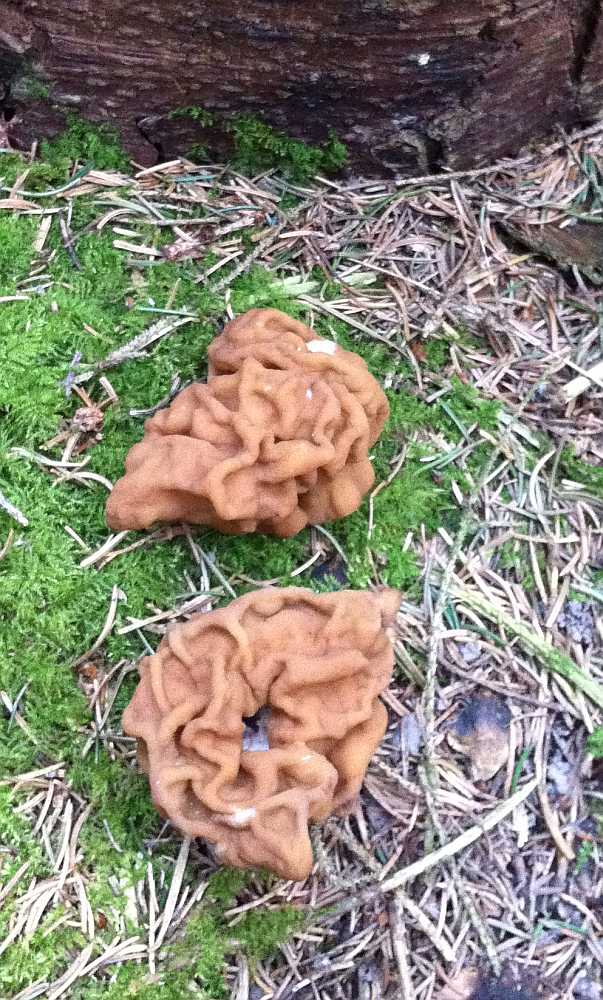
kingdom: Fungi
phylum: Ascomycota
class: Pezizomycetes
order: Pezizales
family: Discinaceae
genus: Gyromitra
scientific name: Gyromitra gigas
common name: kæmpe-stenmorkel
